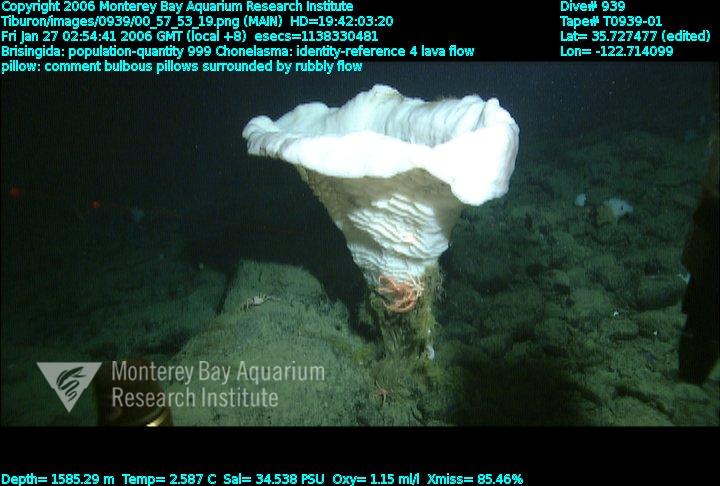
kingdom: Animalia
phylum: Porifera
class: Hexactinellida
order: Sceptrulophora
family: Euretidae
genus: Chonelasma
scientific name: Chonelasma
